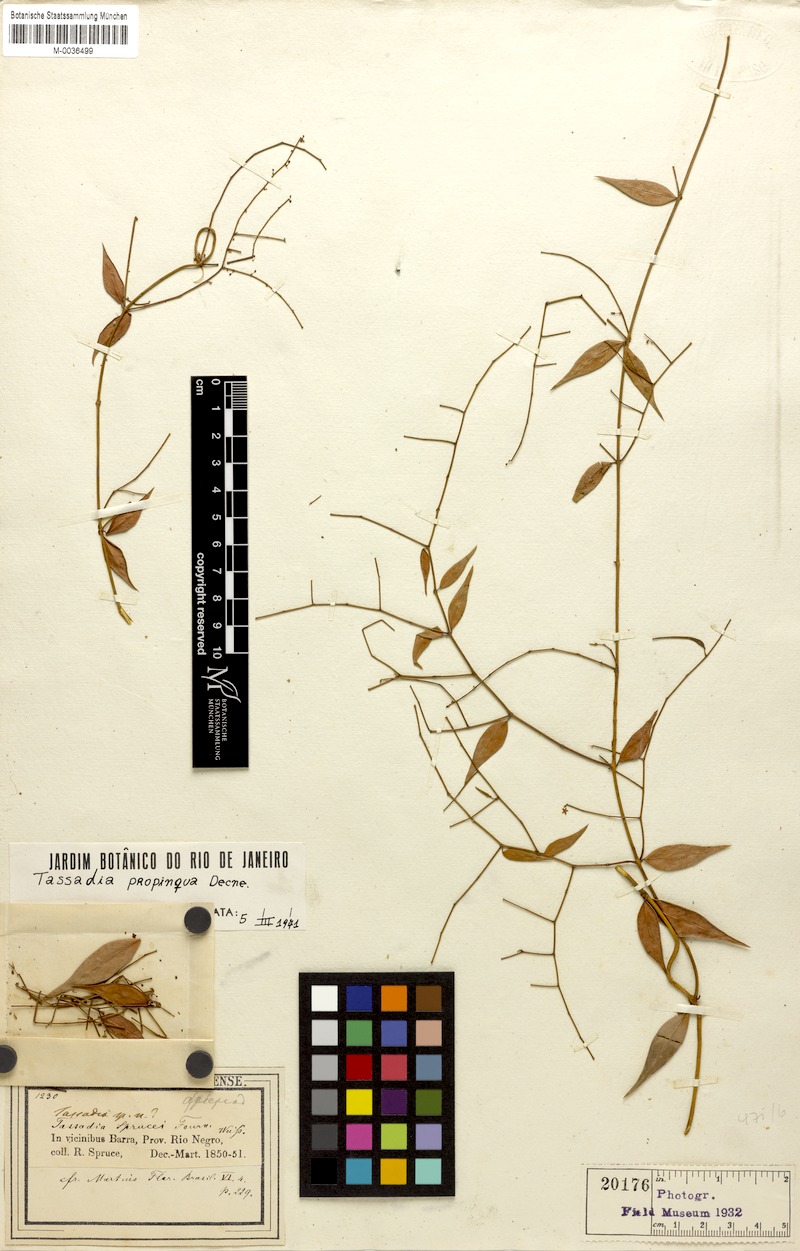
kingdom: Plantae
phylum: Tracheophyta
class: Magnoliopsida
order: Gentianales
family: Apocynaceae
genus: Tassadia
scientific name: Tassadia propinqua
